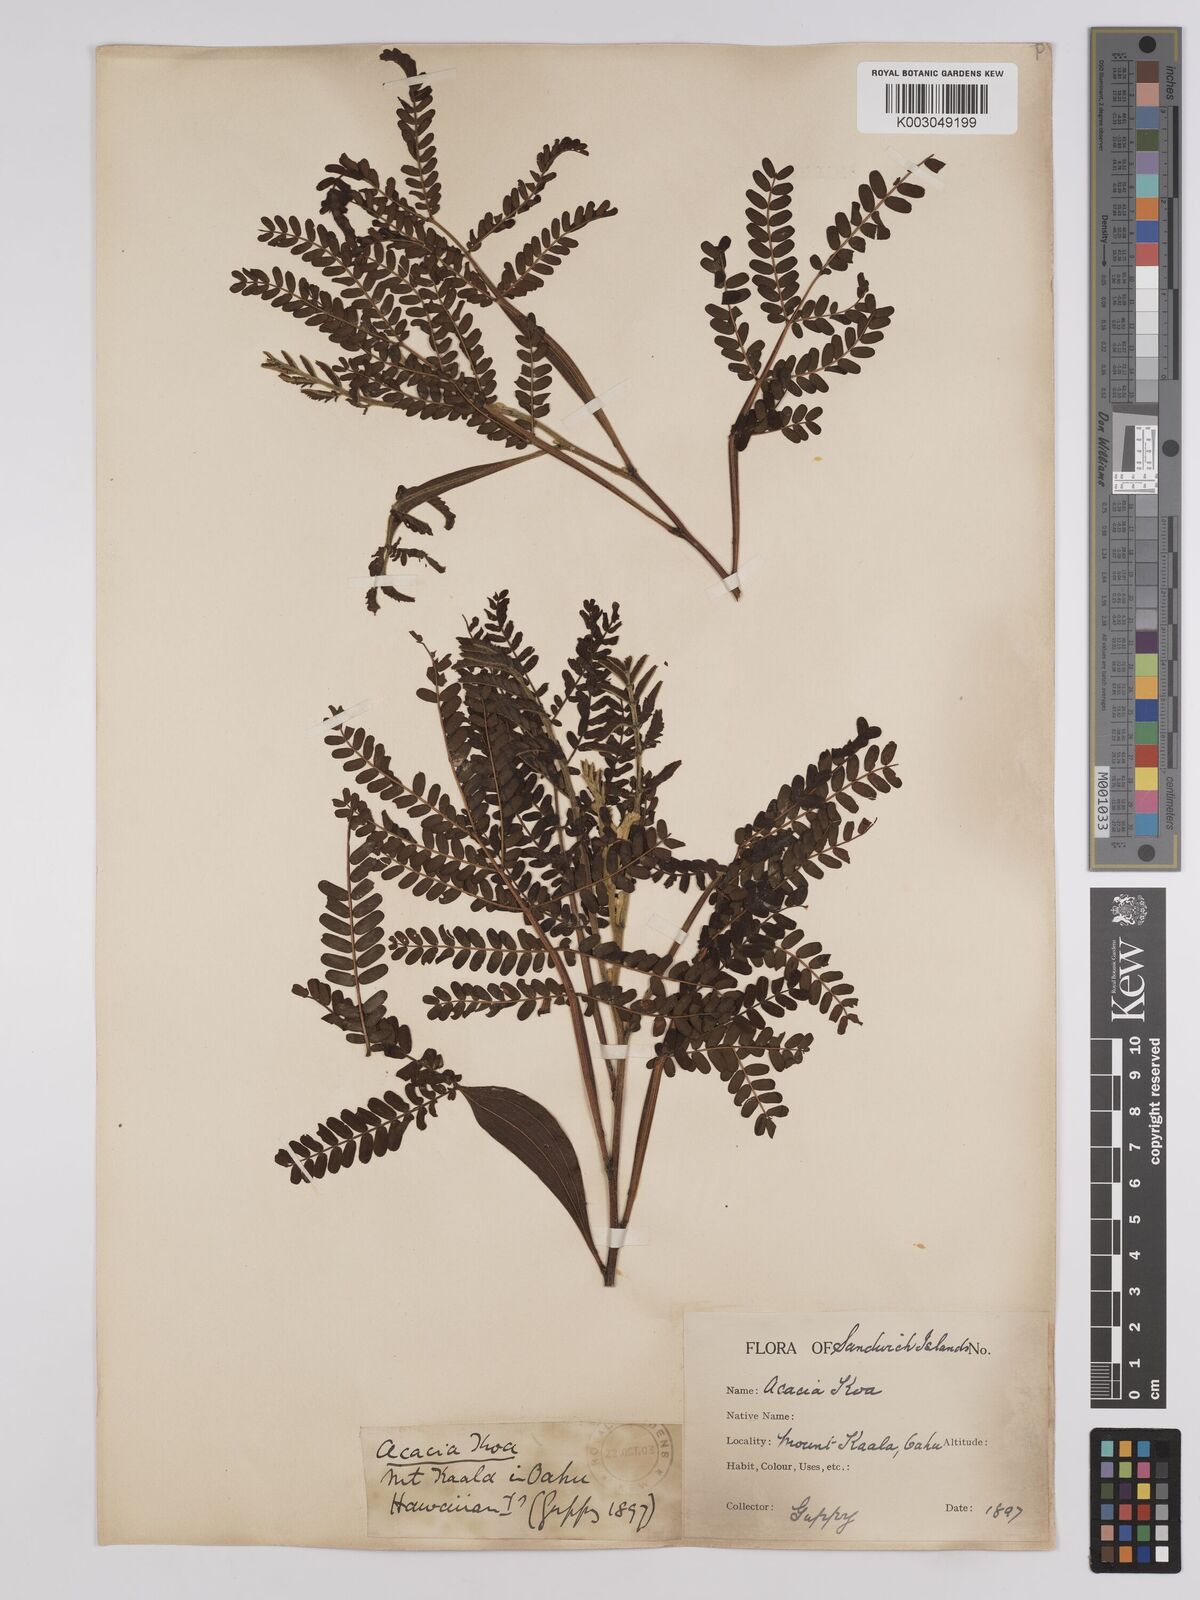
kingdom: Plantae
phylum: Tracheophyta
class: Magnoliopsida
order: Fabales
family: Fabaceae
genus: Acacia
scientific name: Acacia koa
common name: Gray koa
